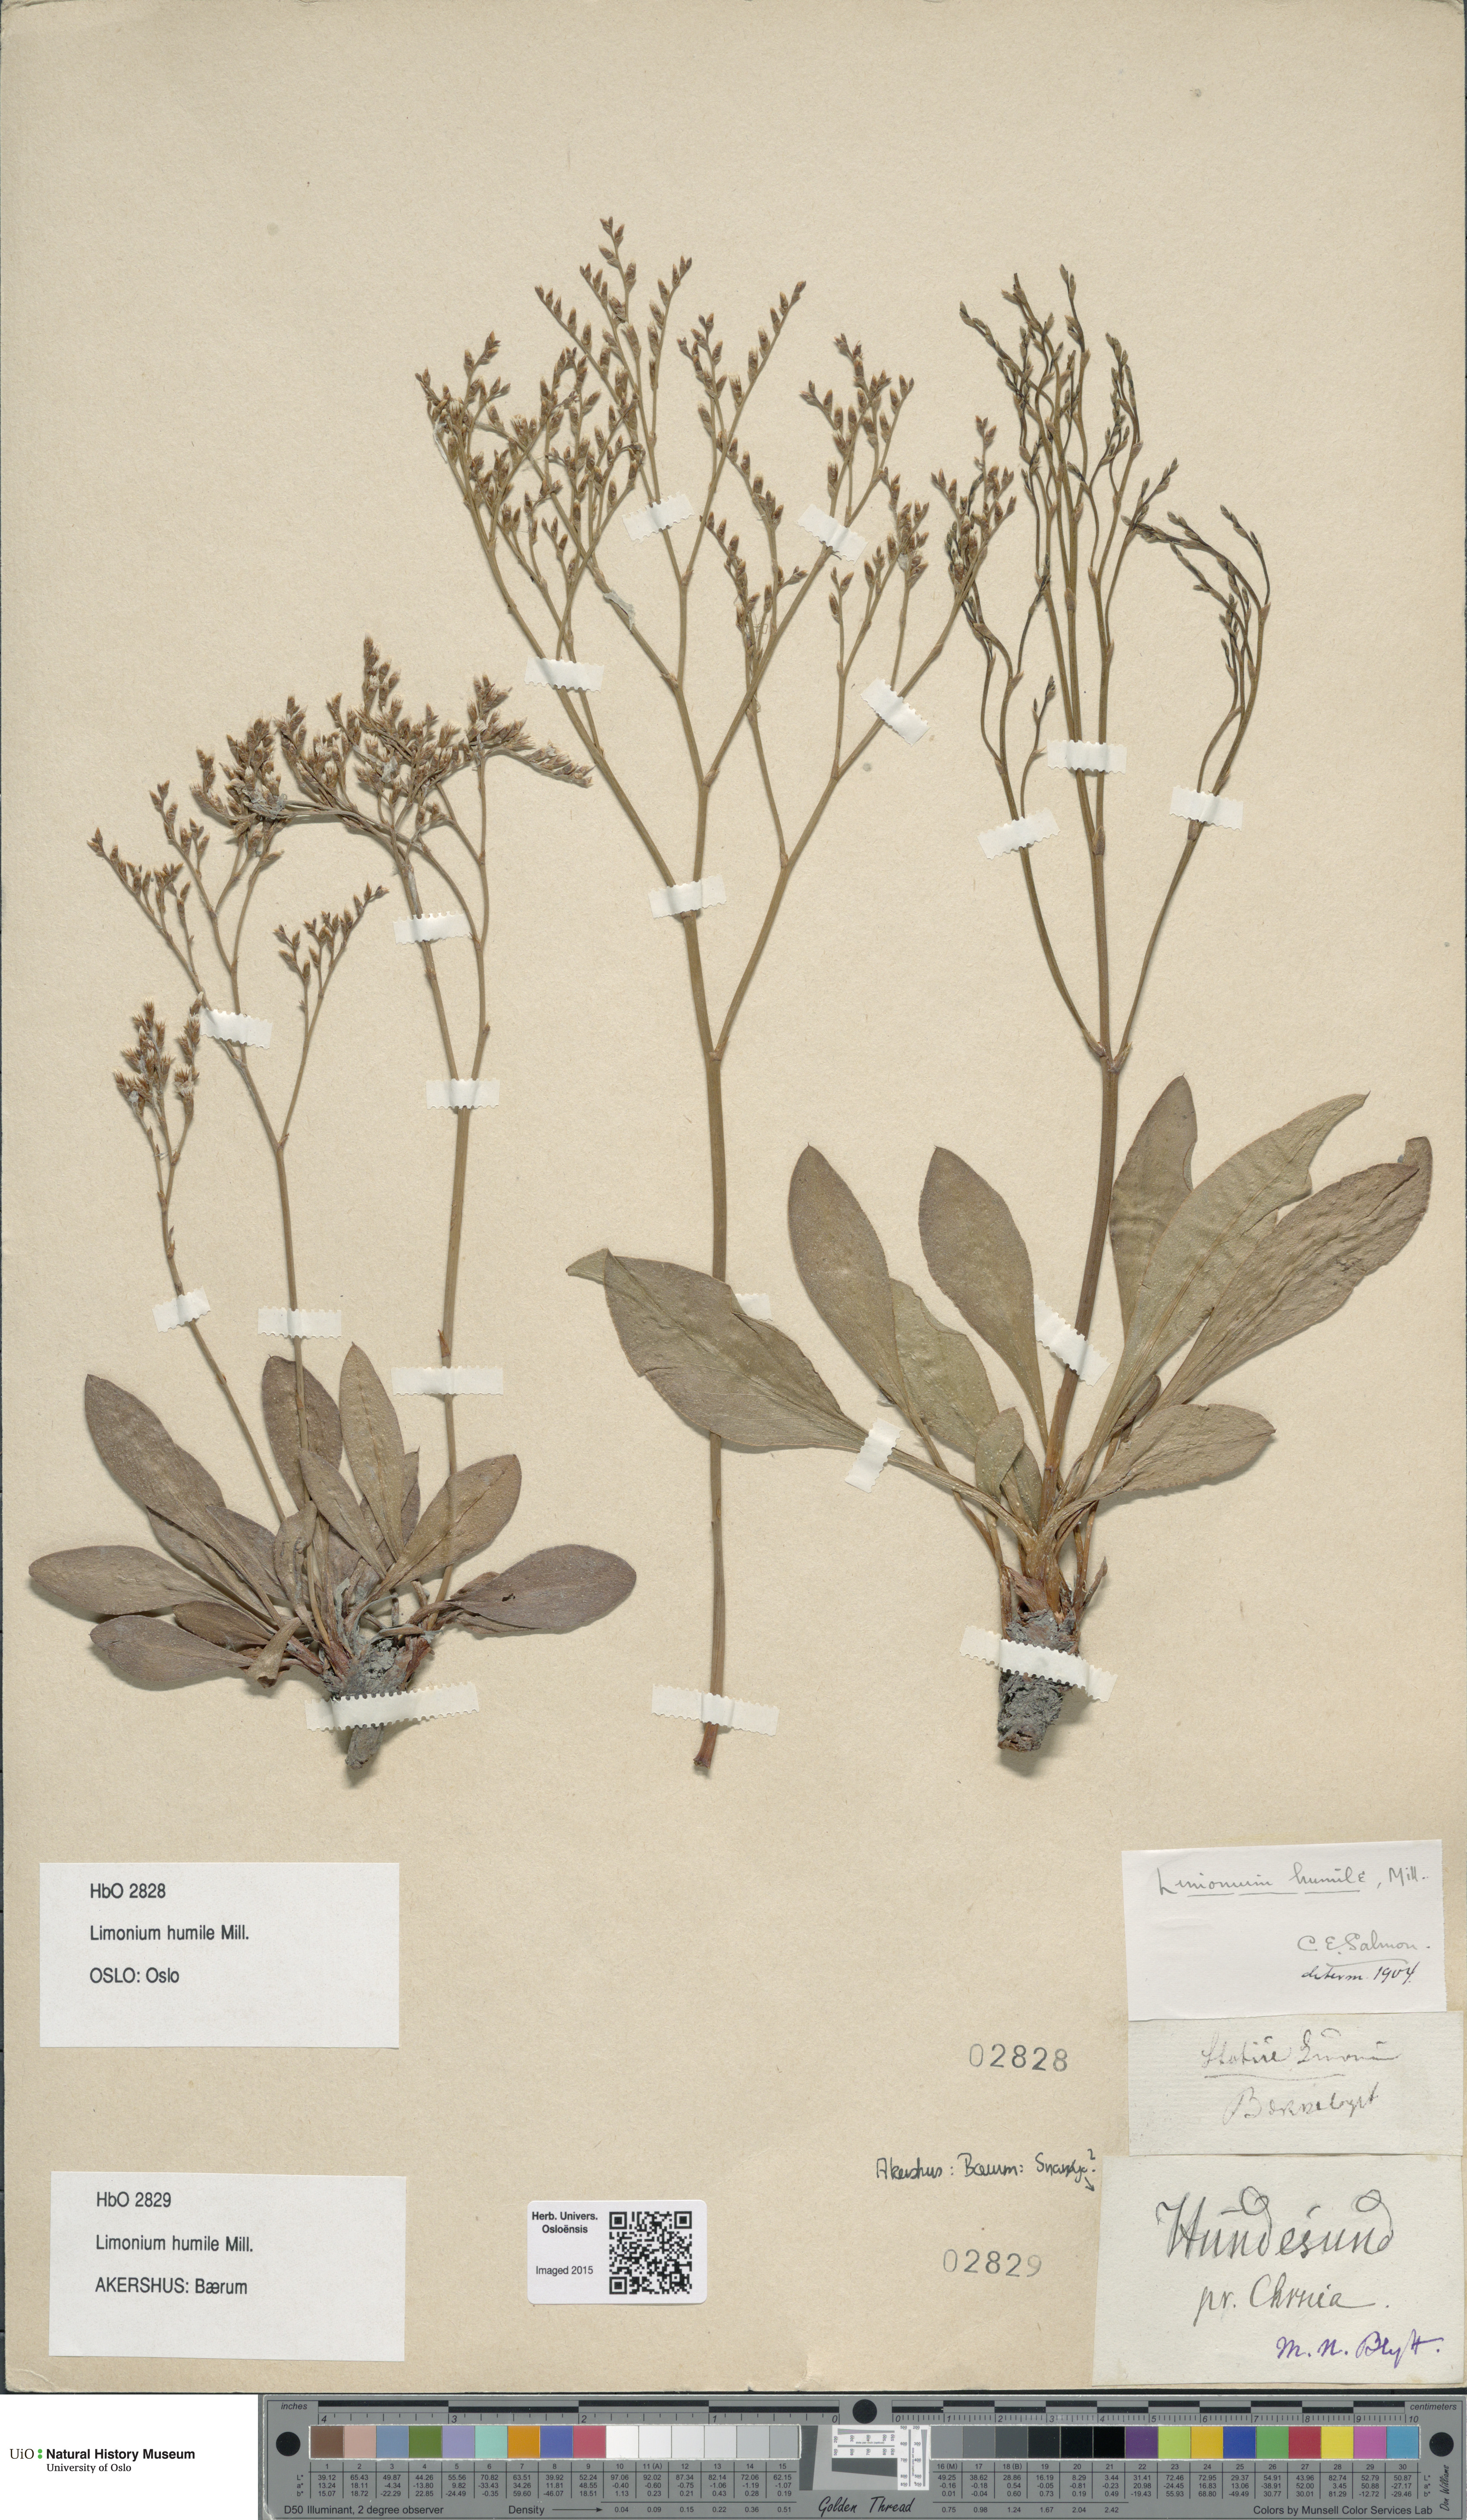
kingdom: Plantae
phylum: Tracheophyta
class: Magnoliopsida
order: Caryophyllales
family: Plumbaginaceae
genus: Limonium
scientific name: Limonium humile
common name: Lax-flowered sea-lavender
